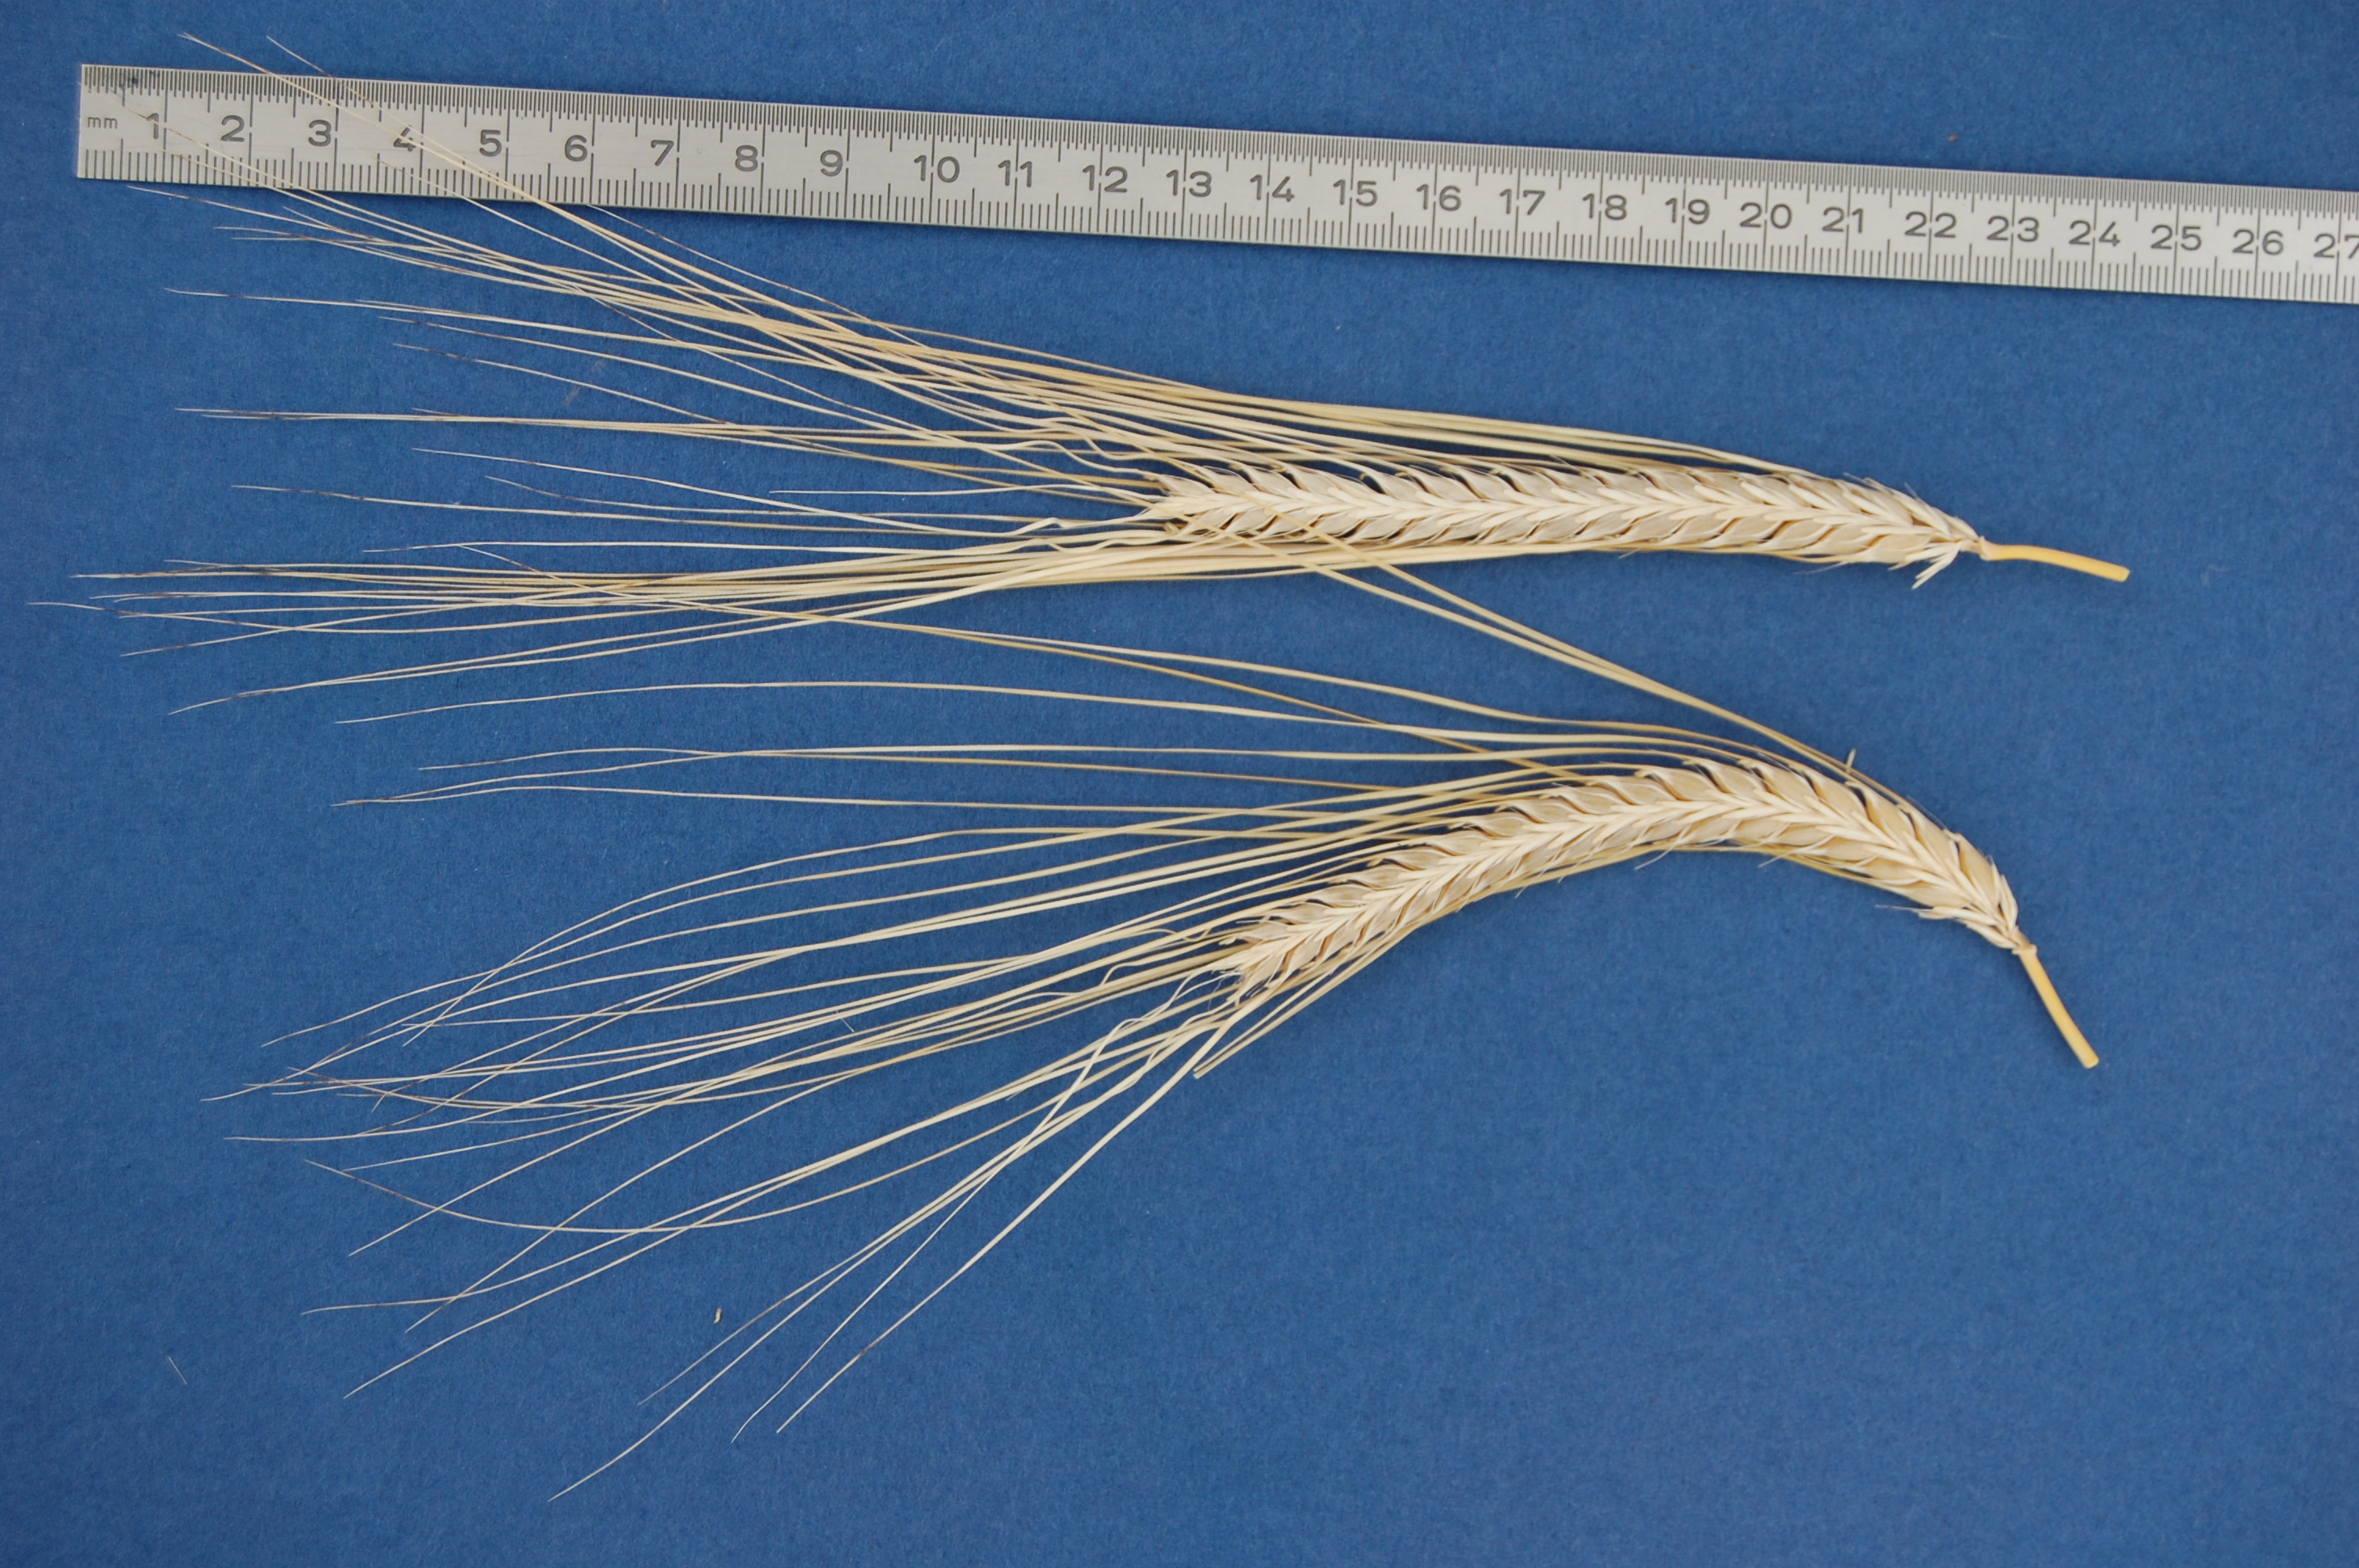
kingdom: Plantae
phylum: Tracheophyta
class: Liliopsida
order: Poales
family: Poaceae
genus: Hordeum
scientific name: Hordeum vulgare
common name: Common barley
